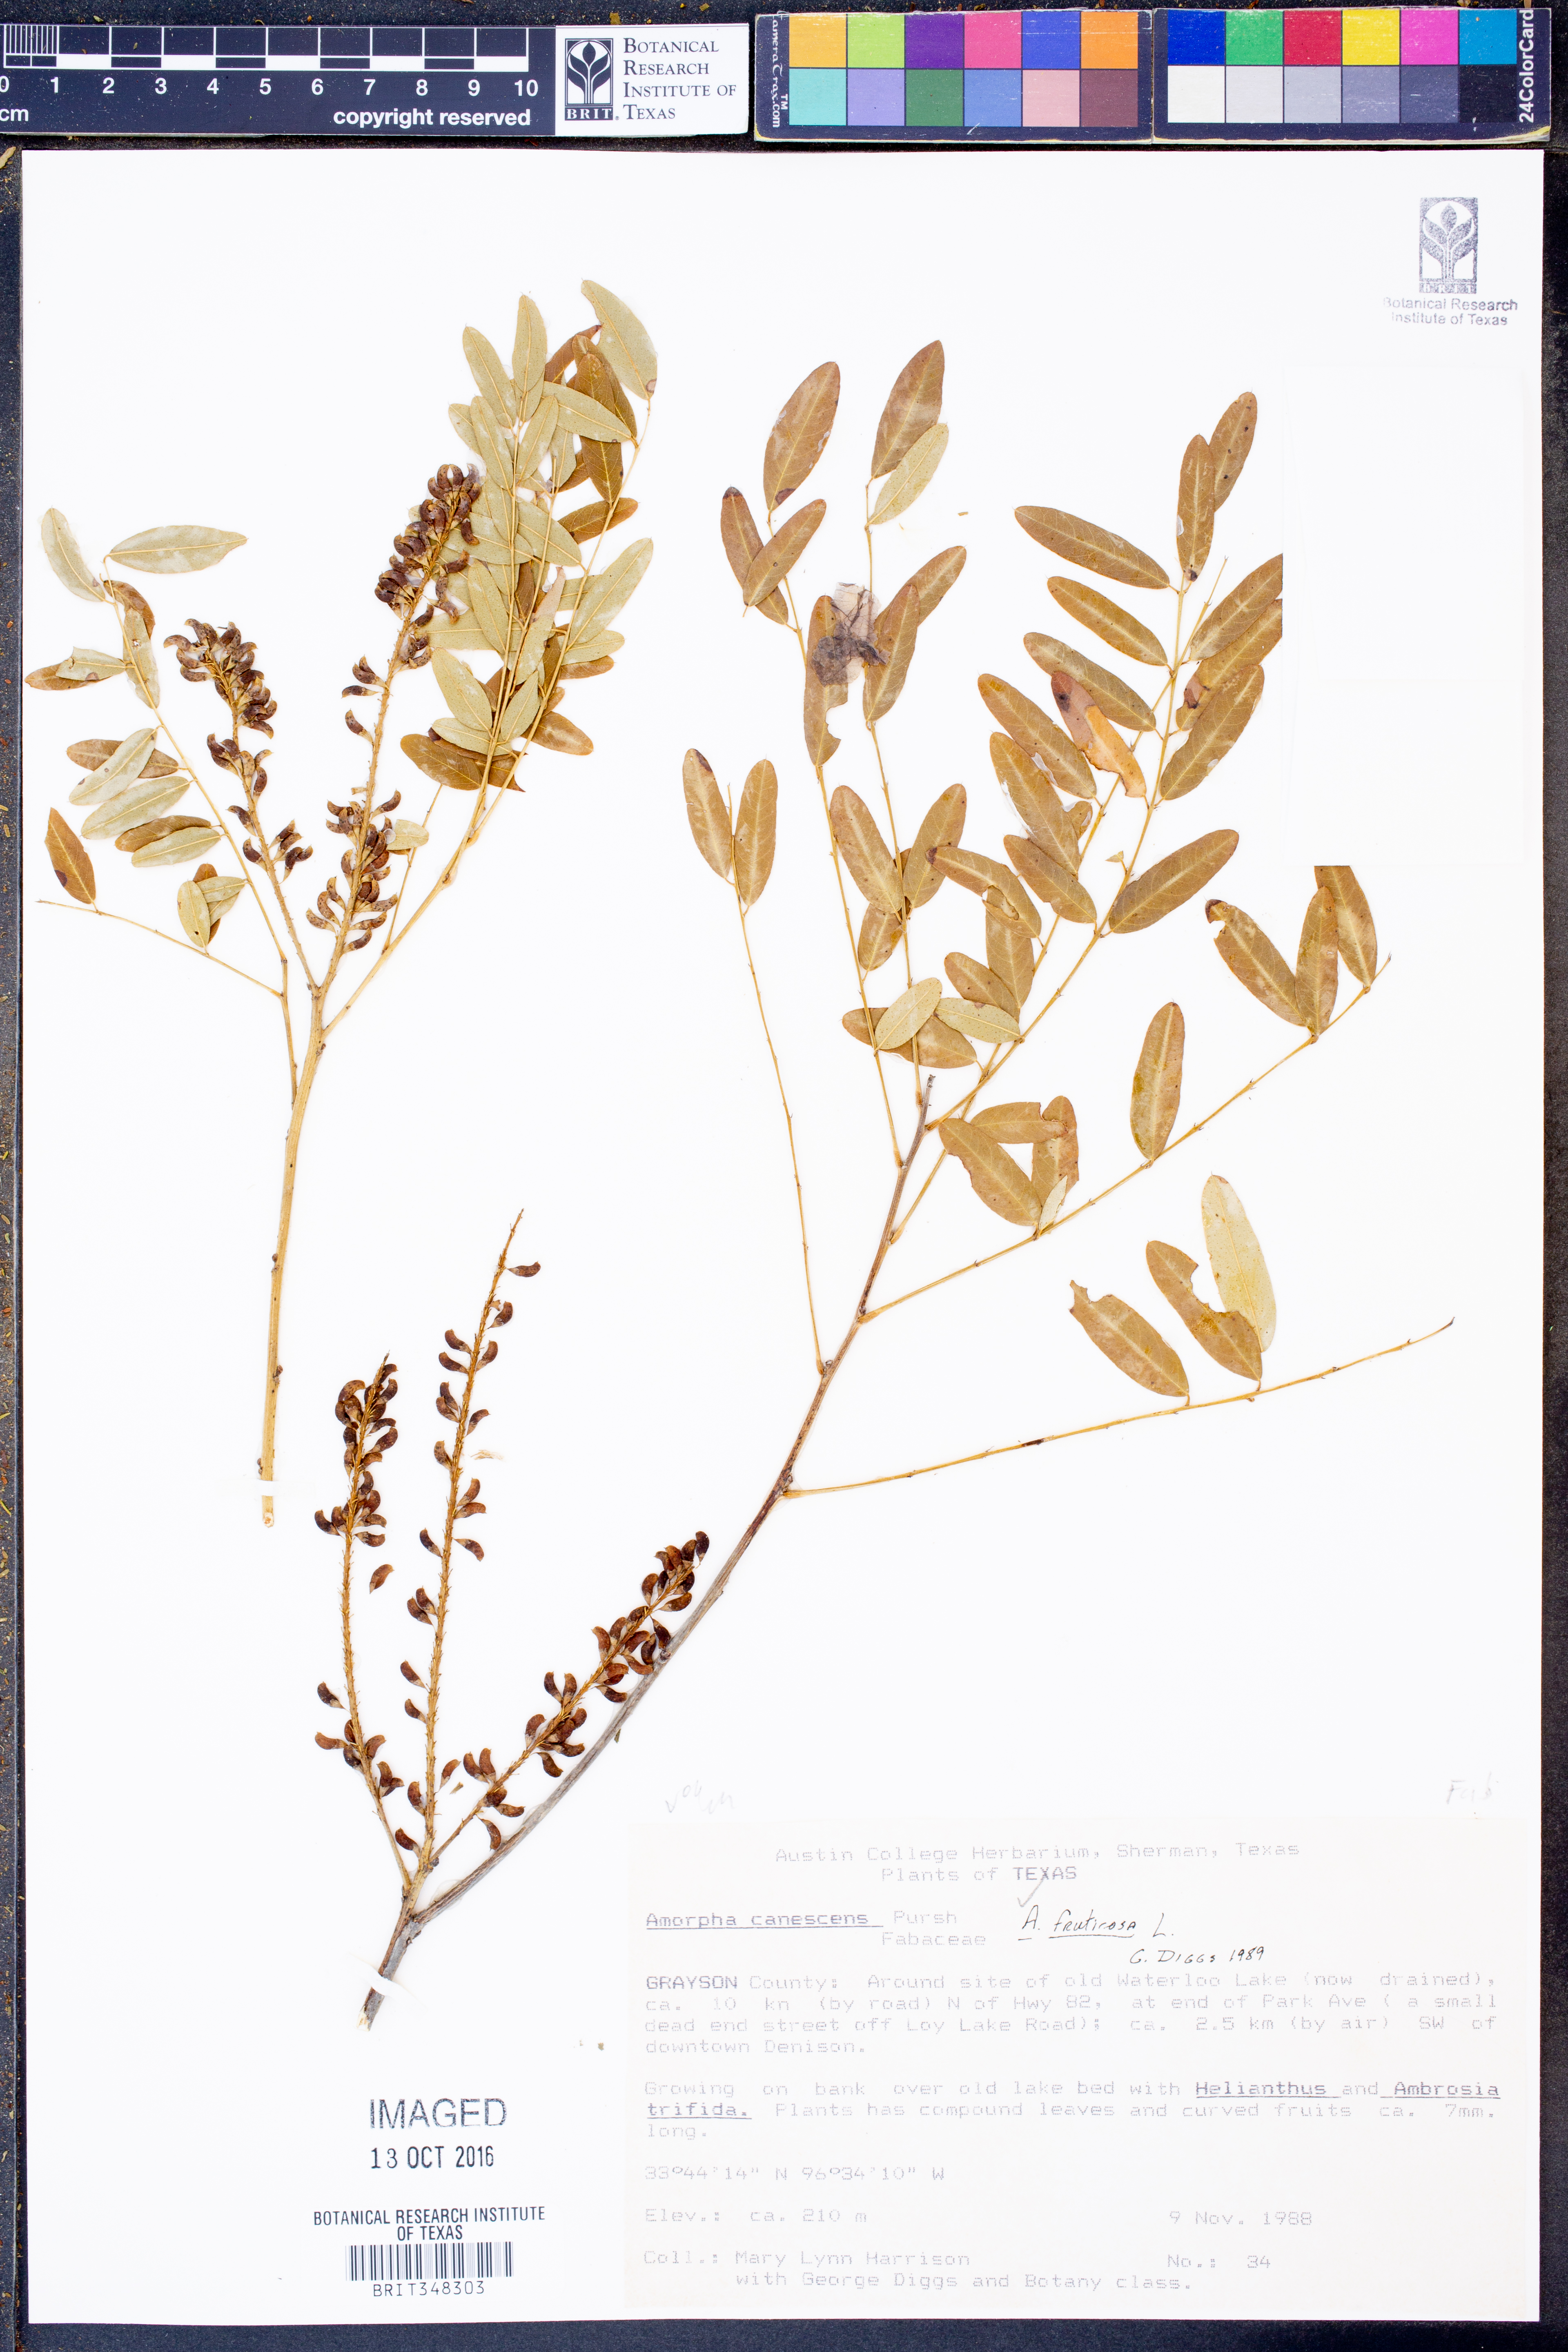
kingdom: Plantae
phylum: Tracheophyta
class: Magnoliopsida
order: Fabales
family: Fabaceae
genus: Amorpha
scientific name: Amorpha fruticosa
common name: False indigo
